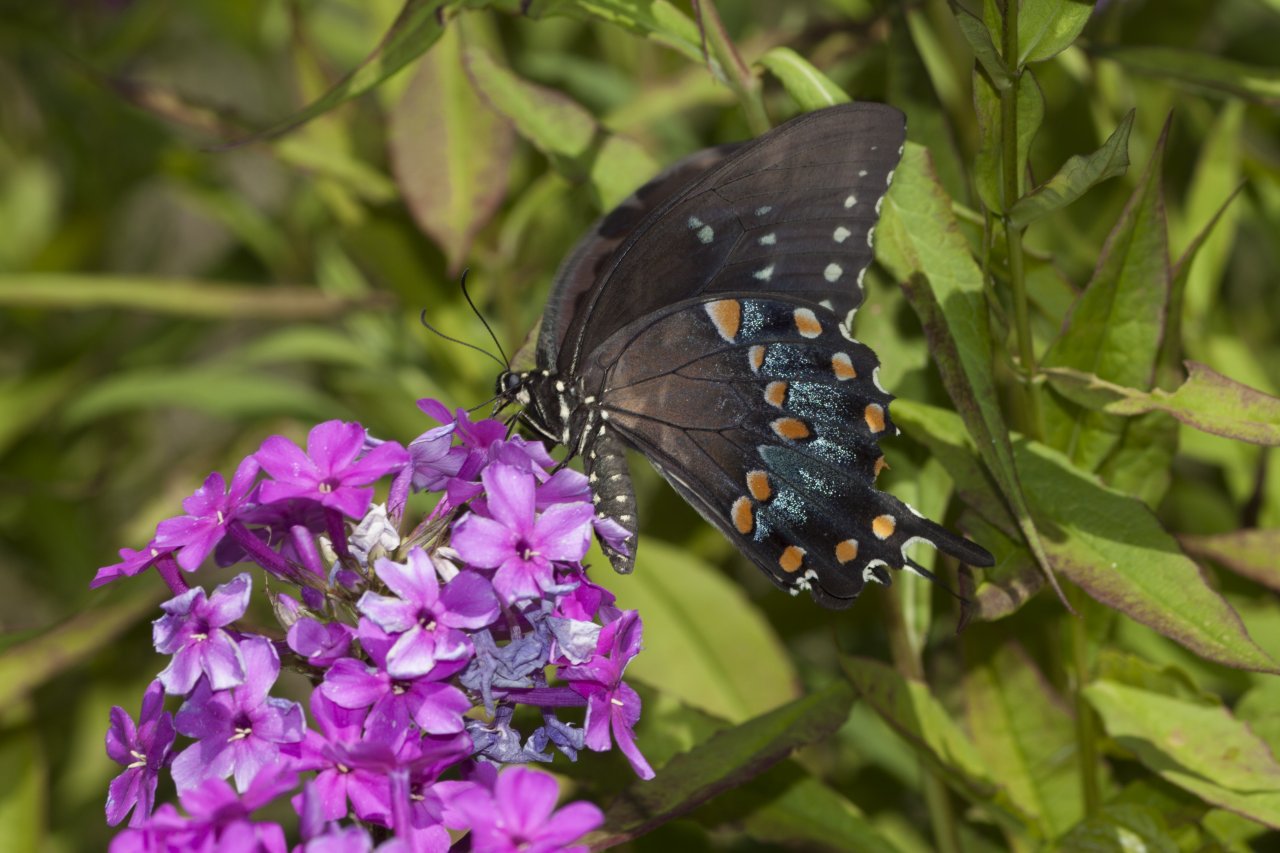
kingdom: Animalia
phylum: Arthropoda
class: Insecta
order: Lepidoptera
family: Papilionidae
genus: Pterourus
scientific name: Pterourus troilus
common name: Spicebush Swallowtail
